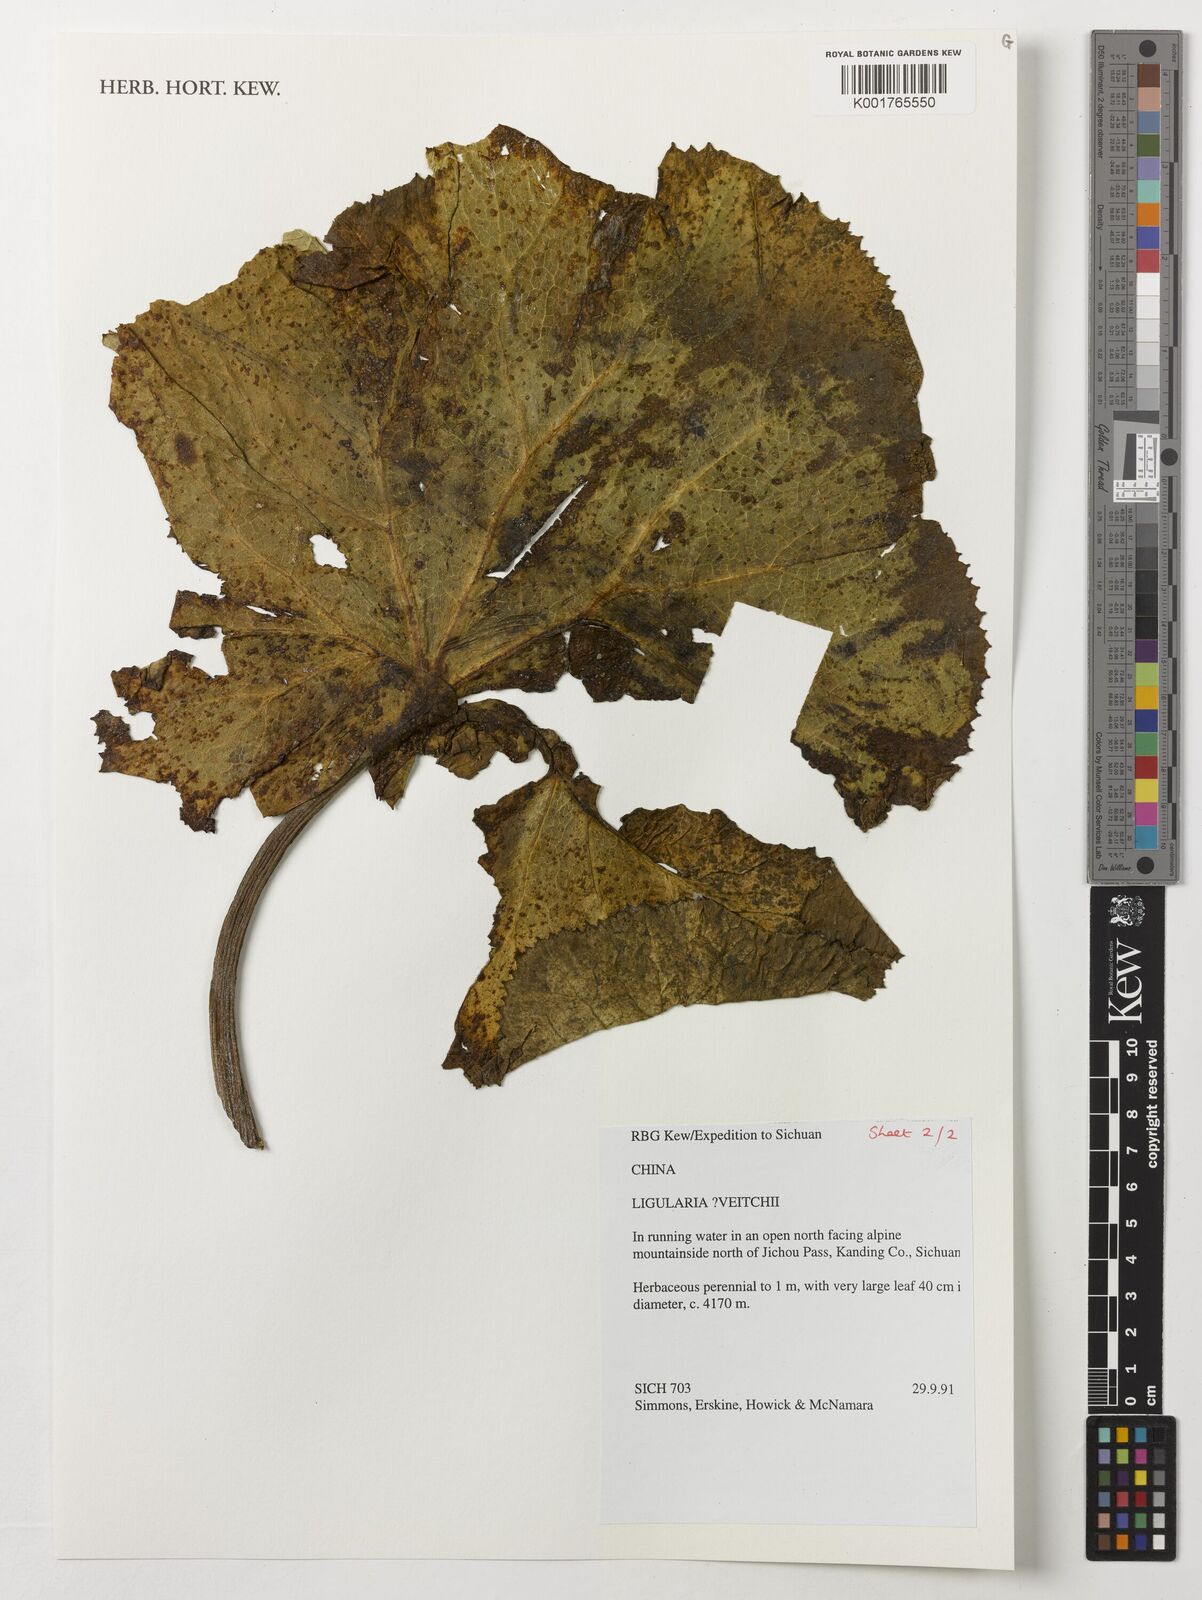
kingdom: Plantae
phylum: Tracheophyta
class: Magnoliopsida
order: Asterales
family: Asteraceae
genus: Ligularia
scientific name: Ligularia
